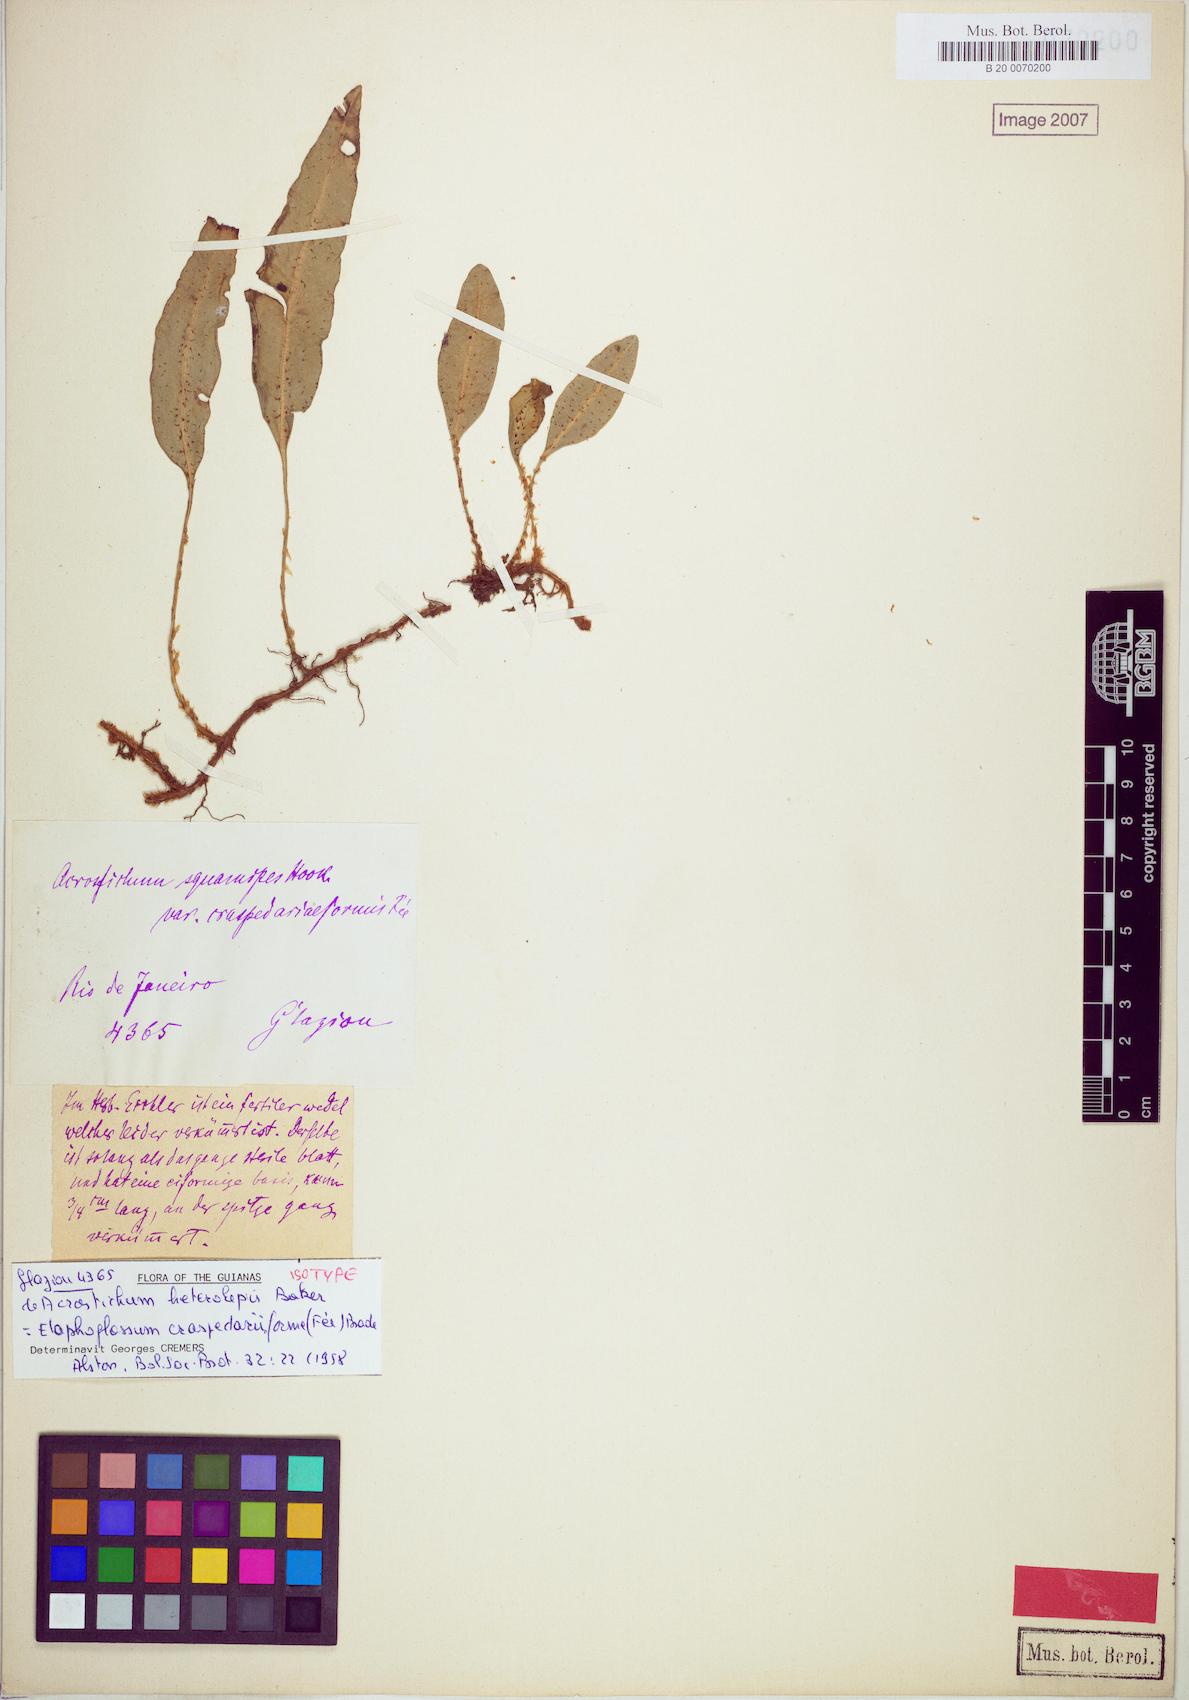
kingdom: Plantae
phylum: Tracheophyta
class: Polypodiopsida
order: Polypodiales
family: Dryopteridaceae
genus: Elaphoglossum
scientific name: Elaphoglossum squamipes
